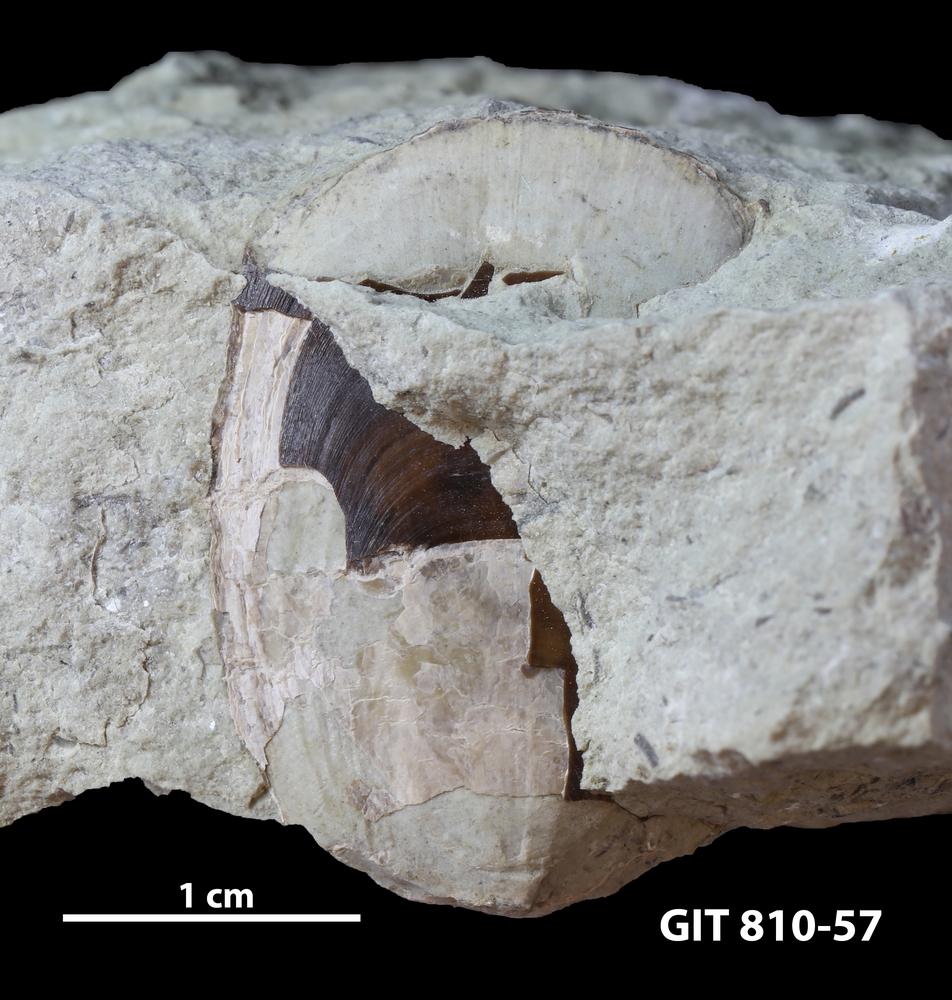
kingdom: Animalia
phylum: Brachiopoda
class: Lingulata
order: Lingulida
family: Obolidae
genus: Ectenoglossa
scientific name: Ectenoglossa
